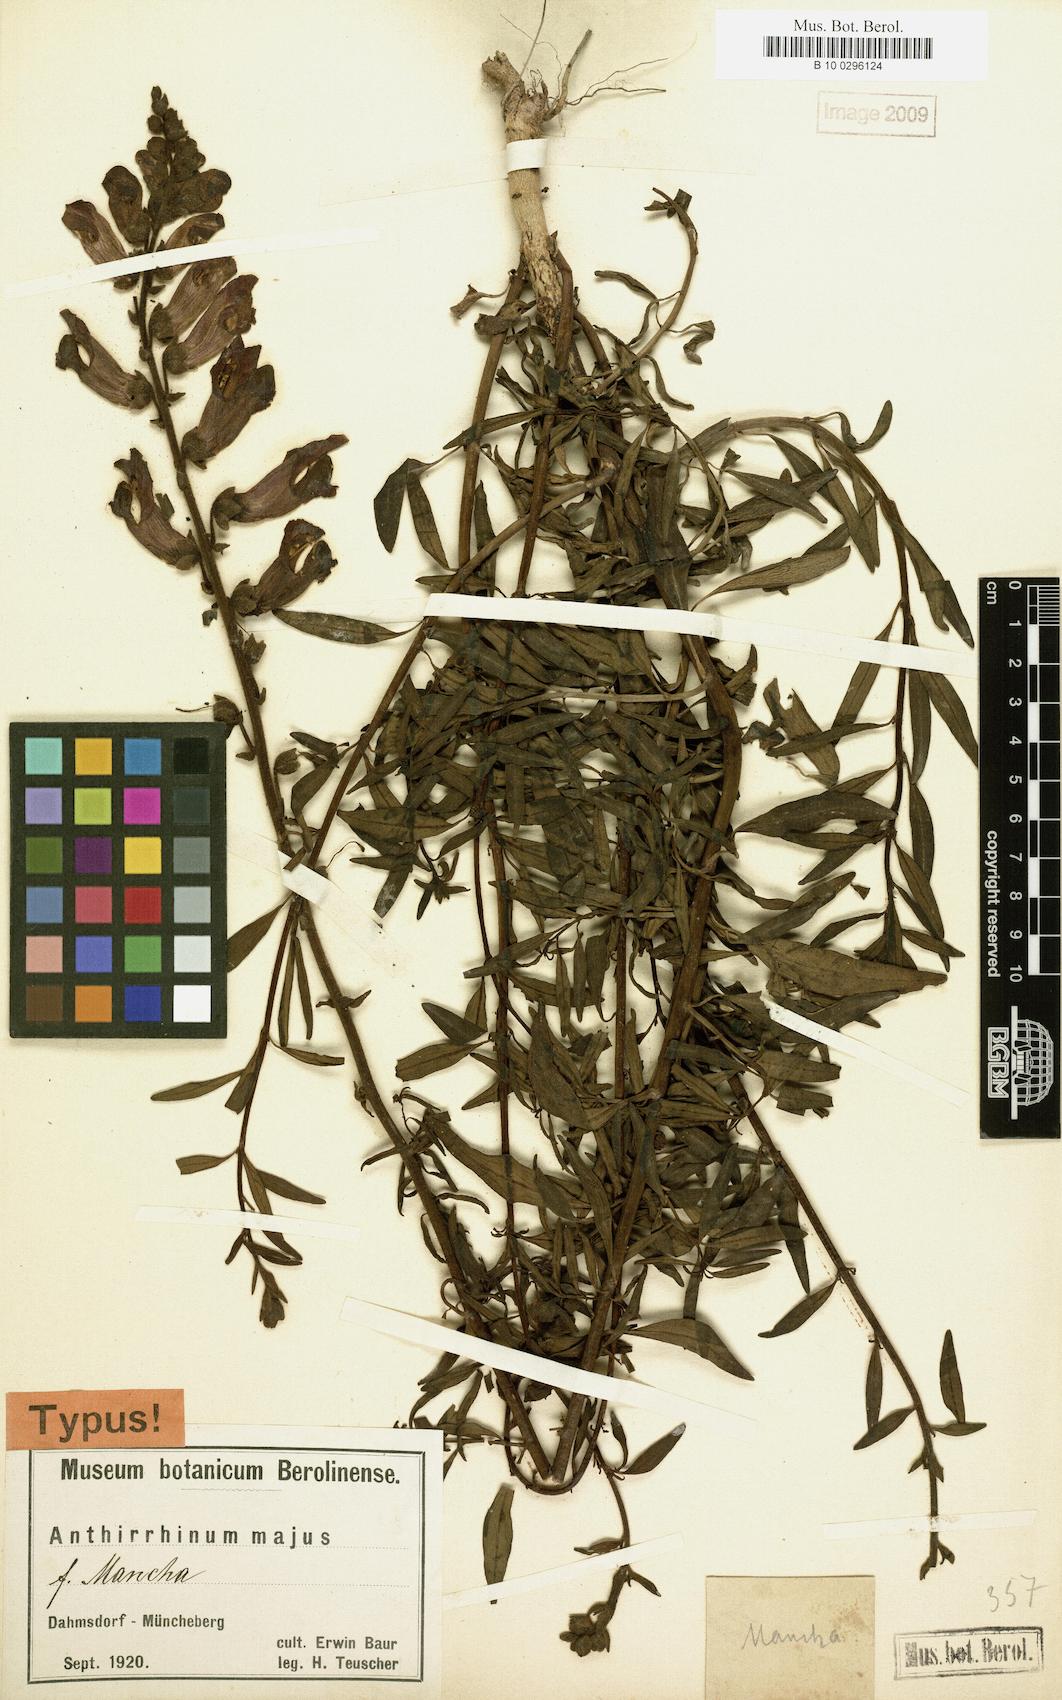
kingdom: Plantae
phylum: Tracheophyta
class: Magnoliopsida
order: Lamiales
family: Plantaginaceae
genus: Antirrhinum
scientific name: Antirrhinum majus
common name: Snapdragon
